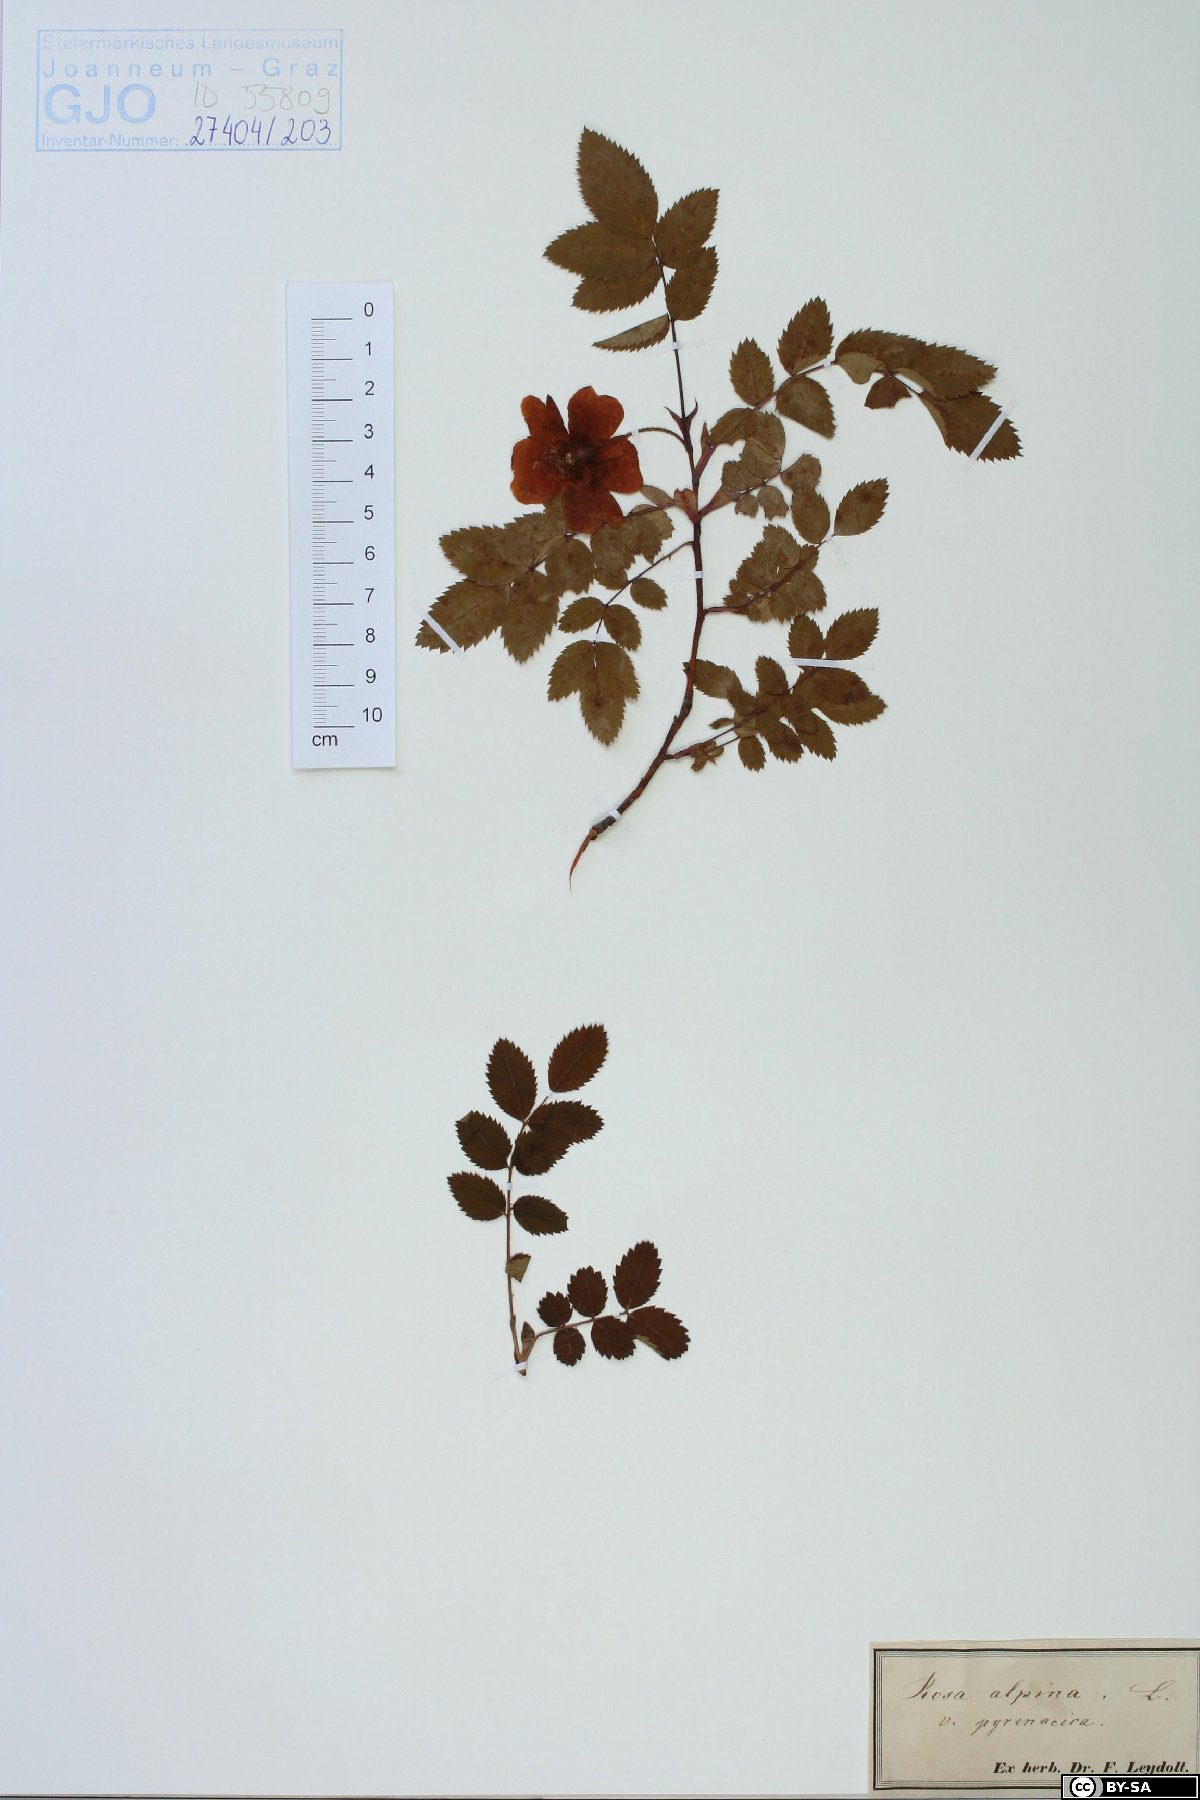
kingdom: Plantae
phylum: Tracheophyta
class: Magnoliopsida
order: Rosales
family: Rosaceae
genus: Rosa
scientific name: Rosa pendulina
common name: Alpine rose
